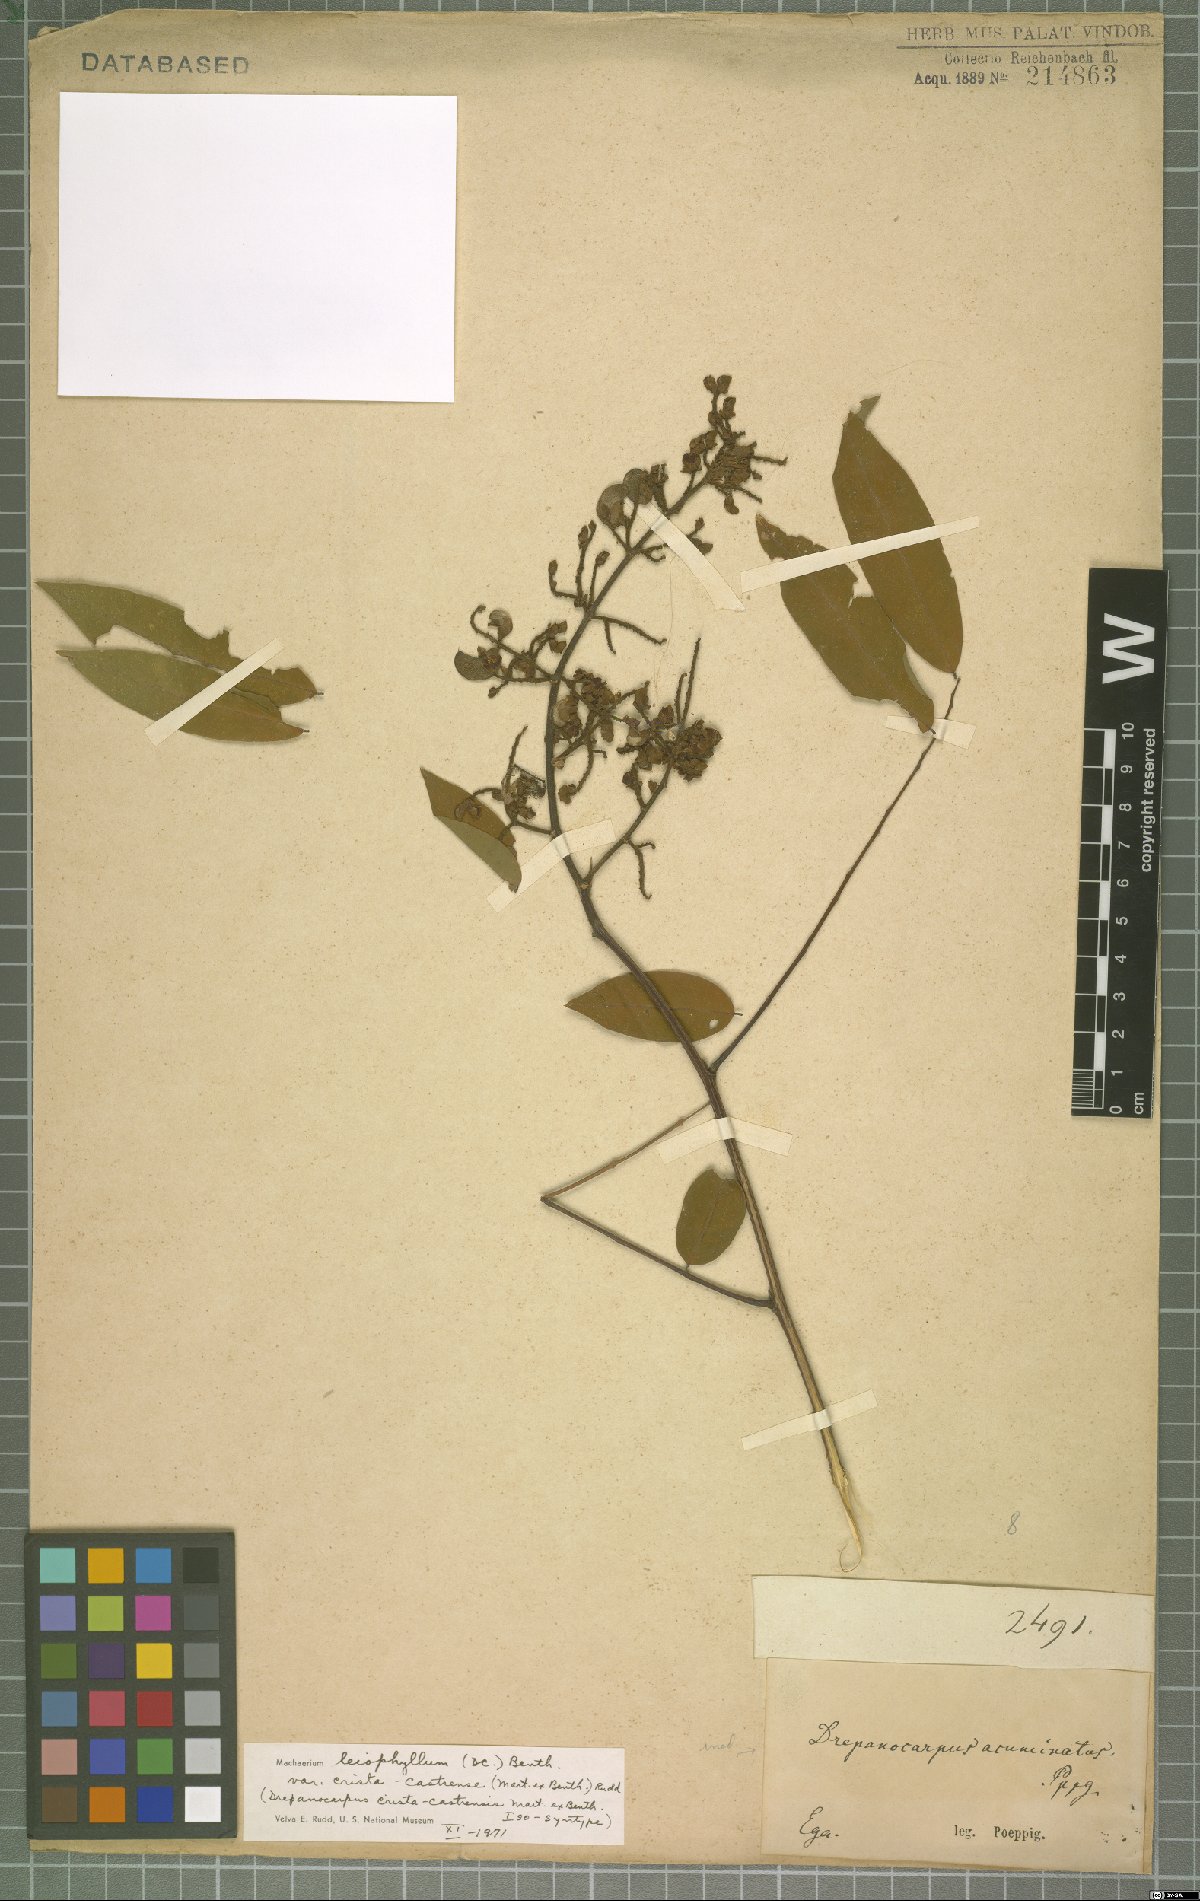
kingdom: Plantae
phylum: Tracheophyta
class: Magnoliopsida
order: Fabales
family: Fabaceae
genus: Machaerium
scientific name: Machaerium leiophyllum
